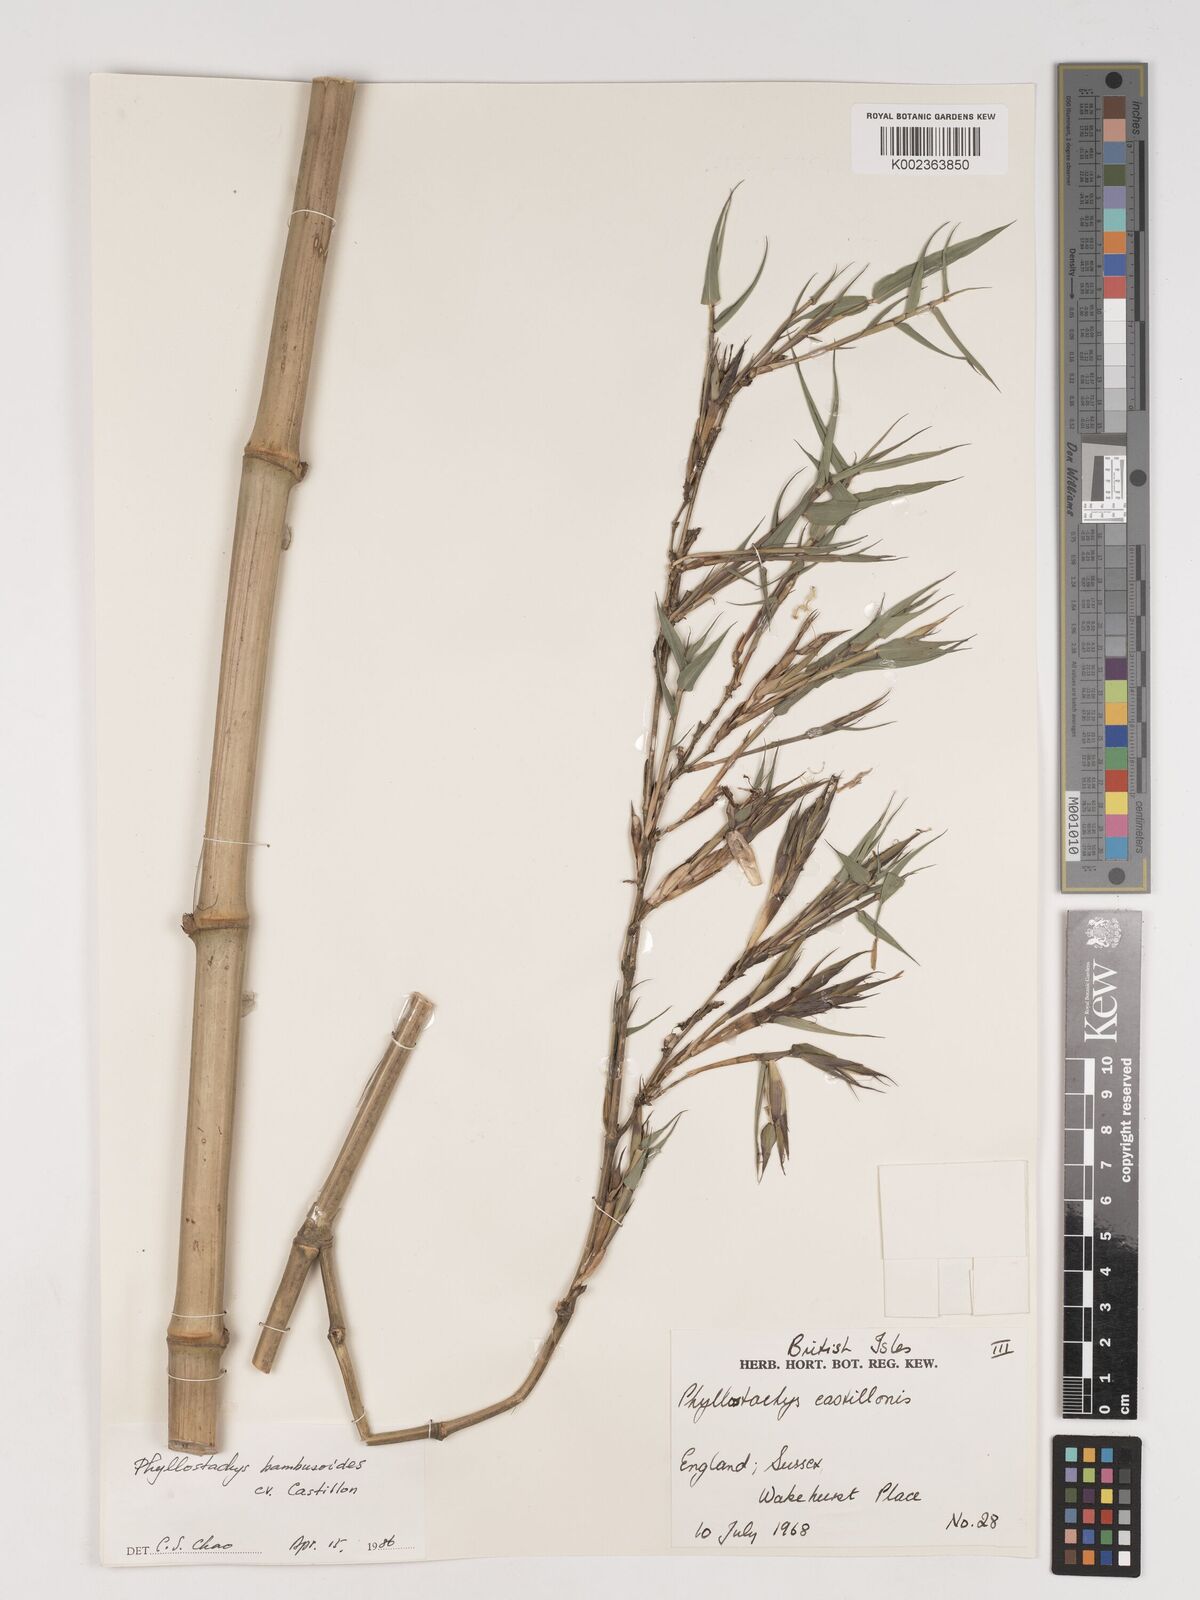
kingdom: Plantae
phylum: Tracheophyta
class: Liliopsida
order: Poales
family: Poaceae
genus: Phyllostachys
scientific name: Phyllostachys reticulata
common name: Bamboo
